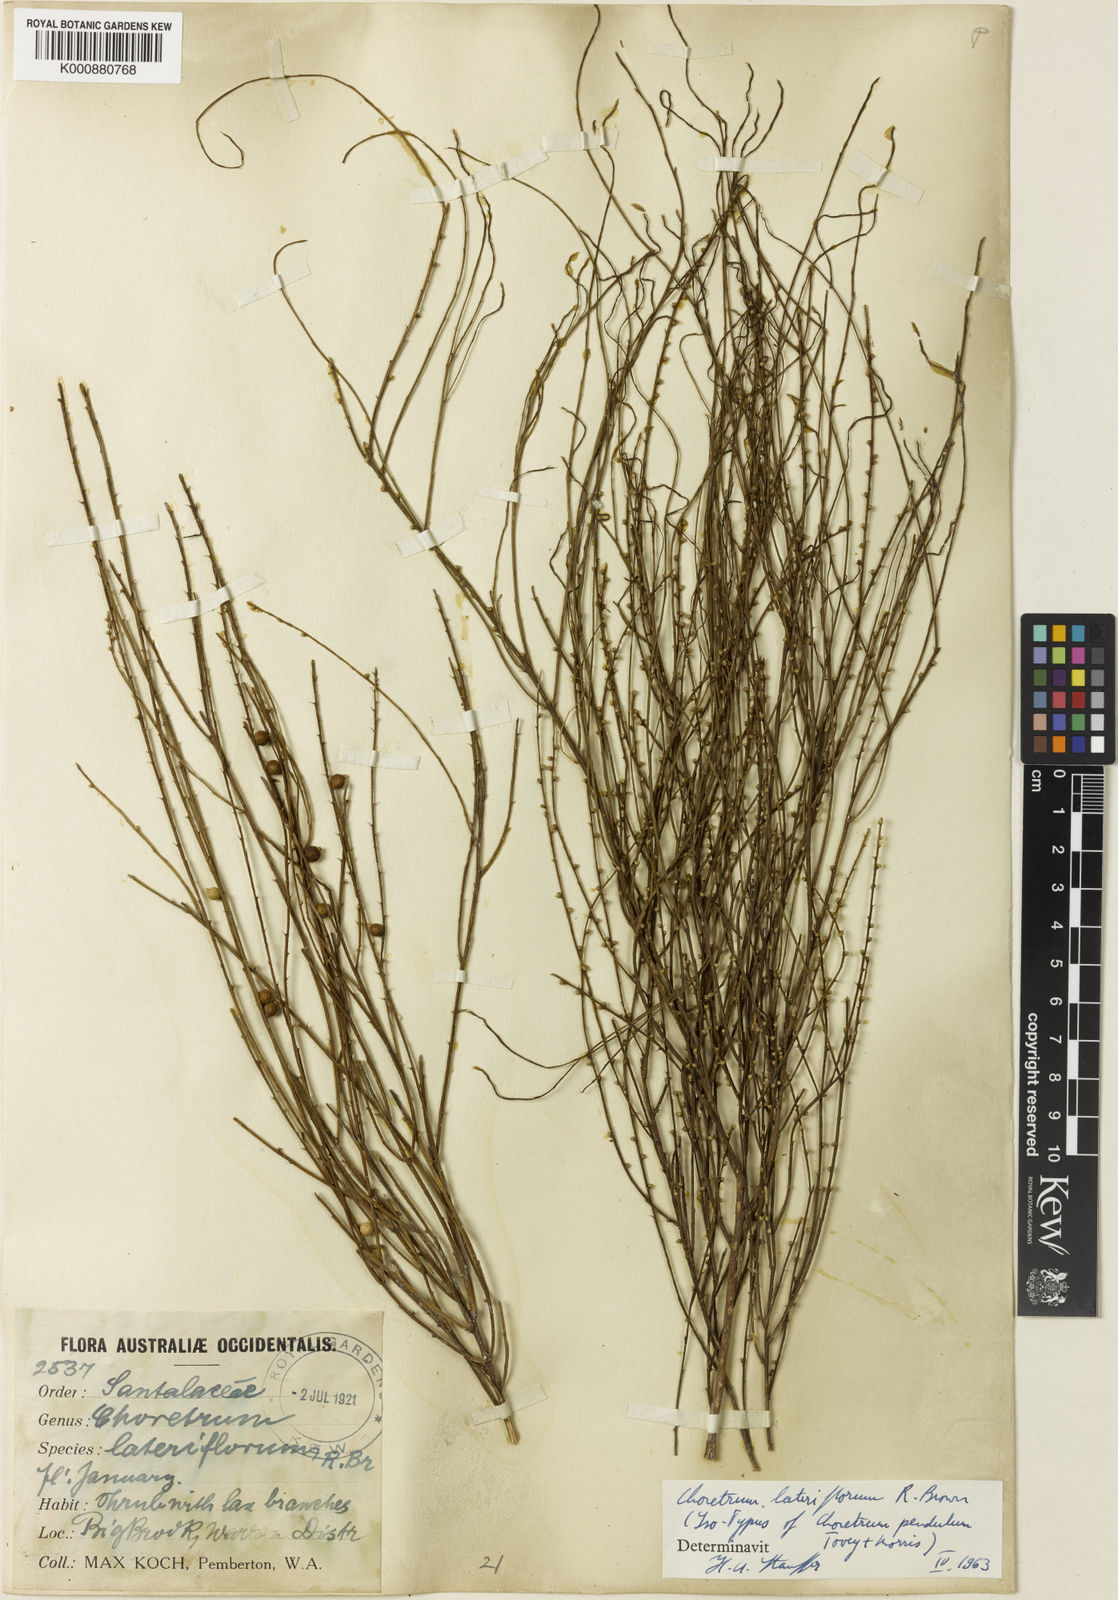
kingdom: Plantae
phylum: Tracheophyta
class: Magnoliopsida
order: Santalales
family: Amphorogynaceae
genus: Choretrum
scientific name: Choretrum lateriflorum
